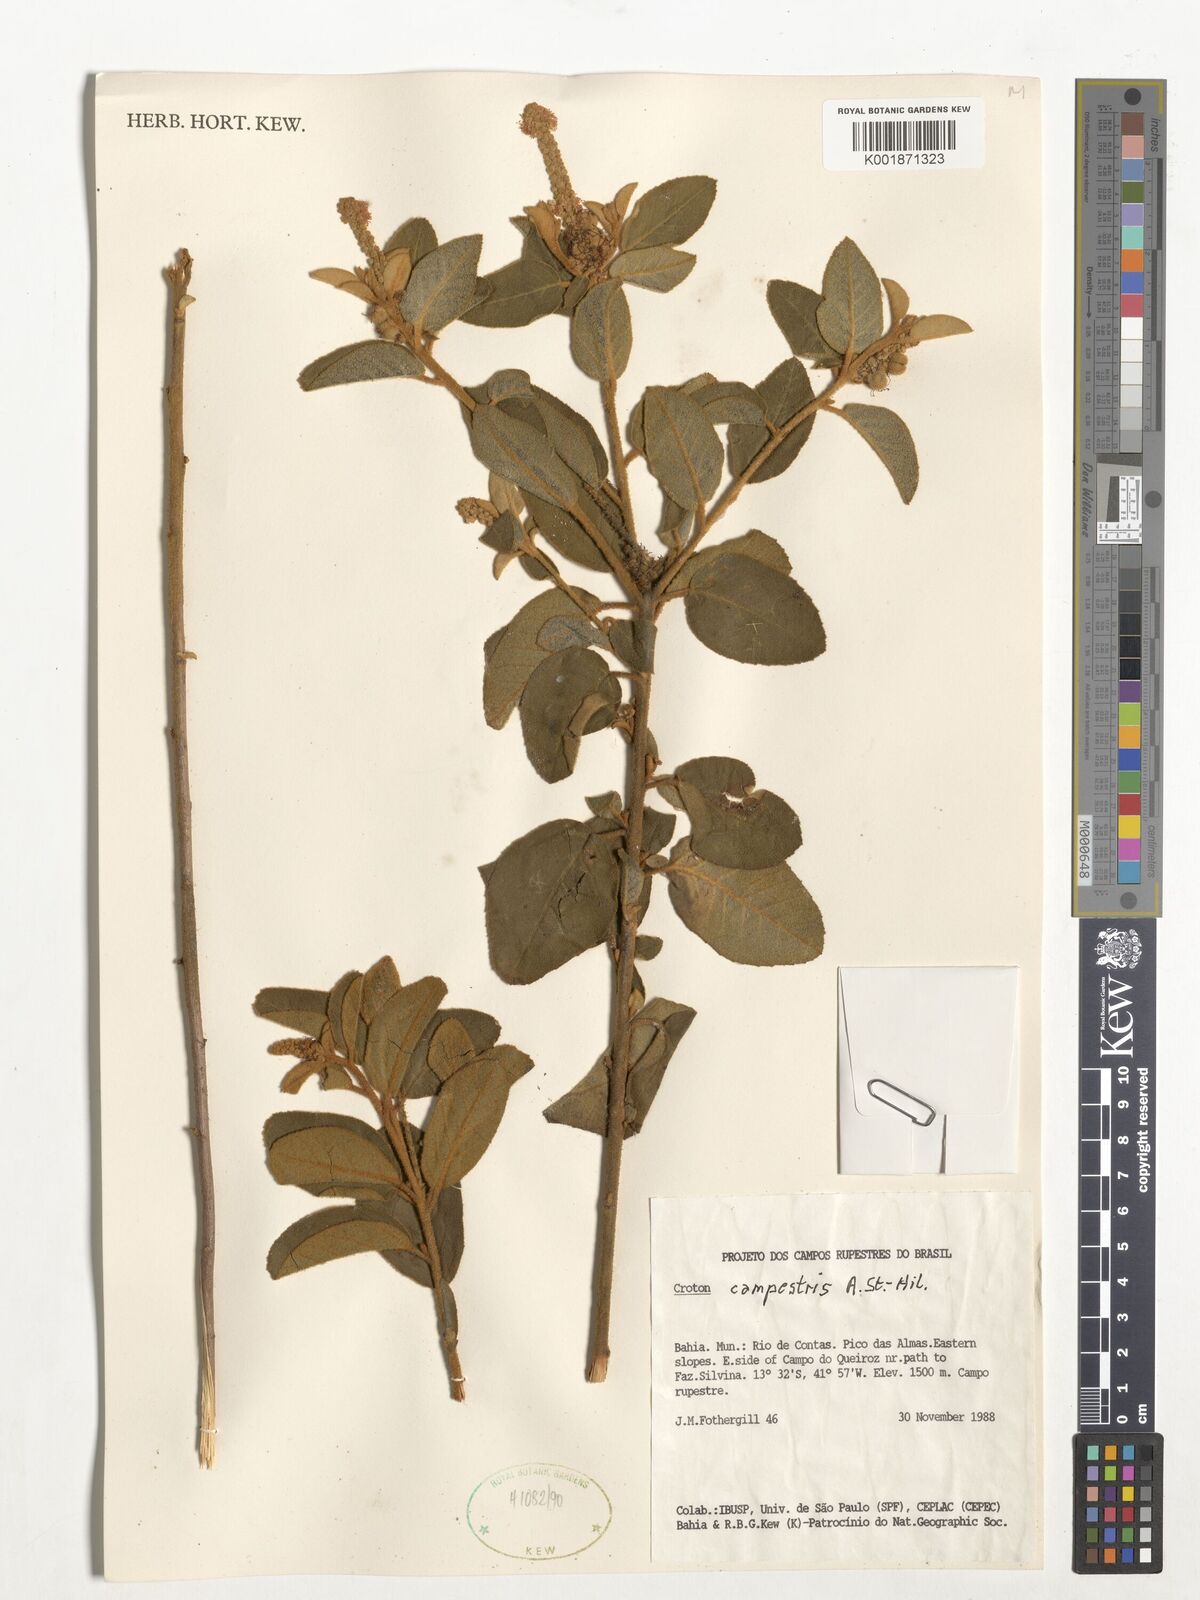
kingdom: Plantae
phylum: Tracheophyta
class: Magnoliopsida
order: Malpighiales
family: Euphorbiaceae
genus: Croton
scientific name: Croton campestris
